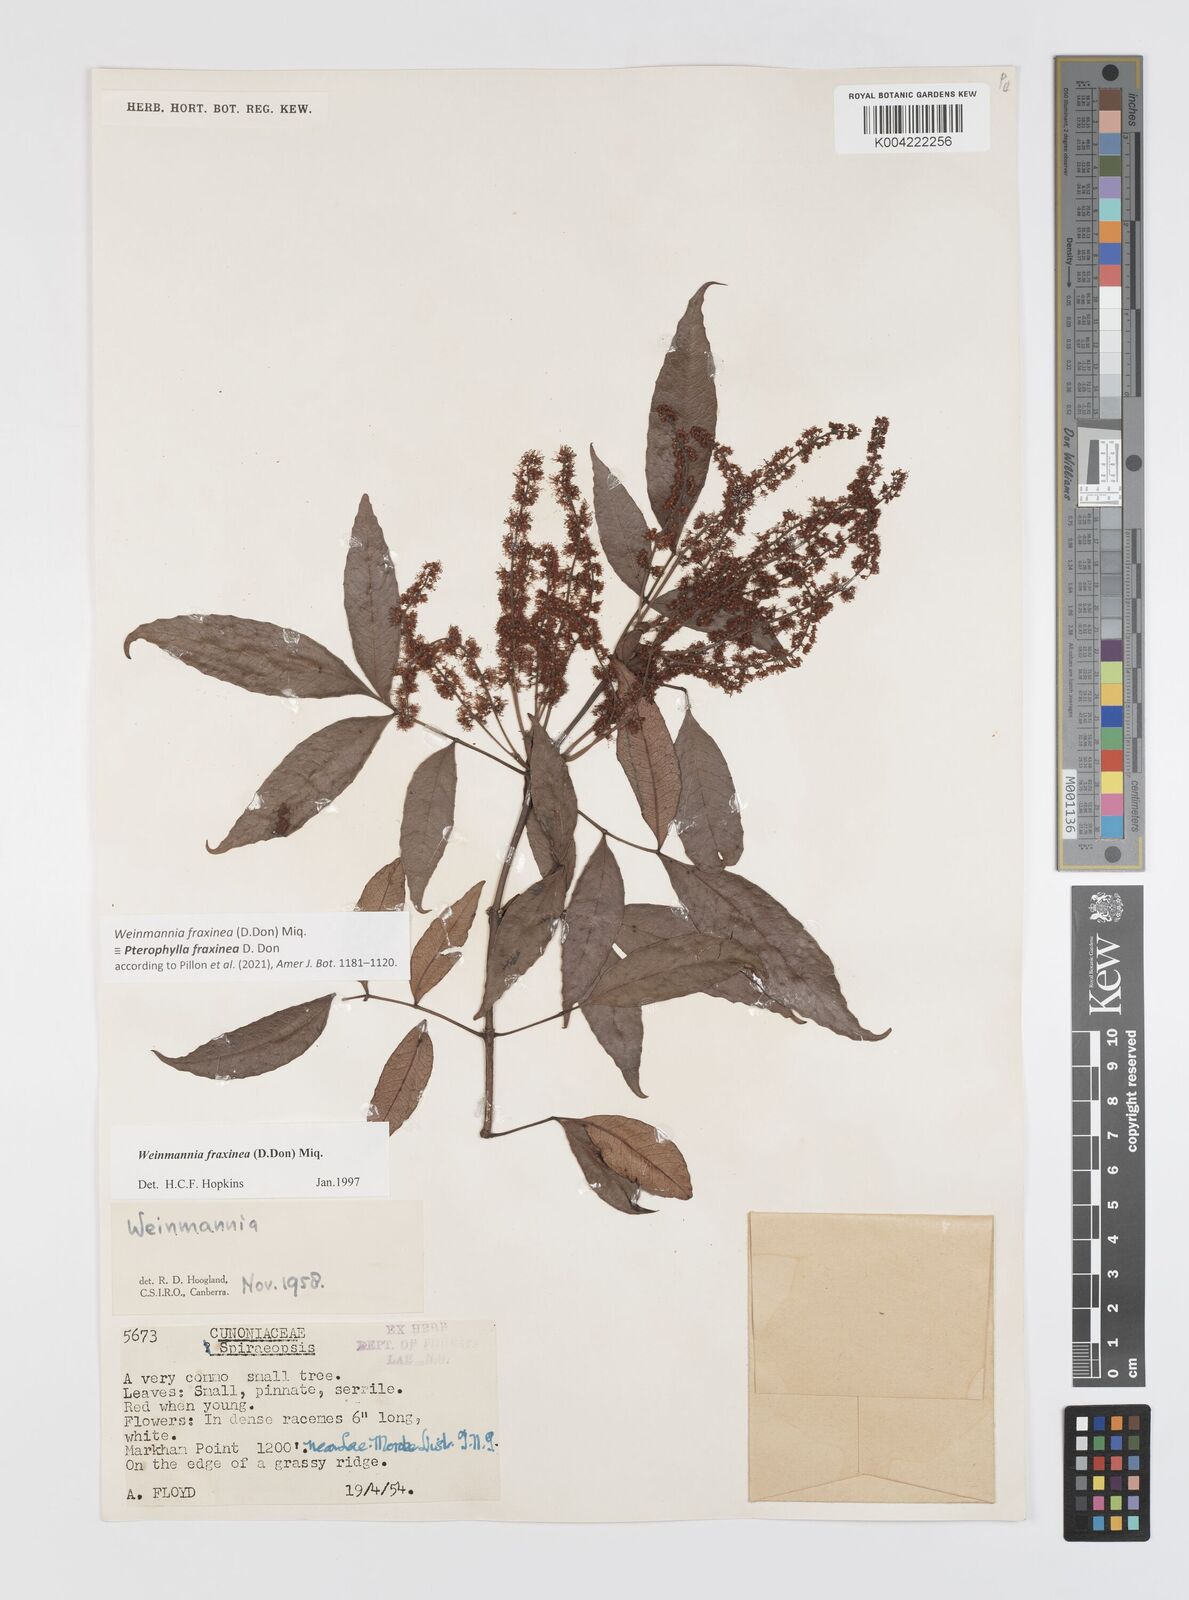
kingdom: Plantae
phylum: Tracheophyta
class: Magnoliopsida
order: Oxalidales
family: Cunoniaceae
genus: Pterophylla
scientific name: Pterophylla fraxinea
